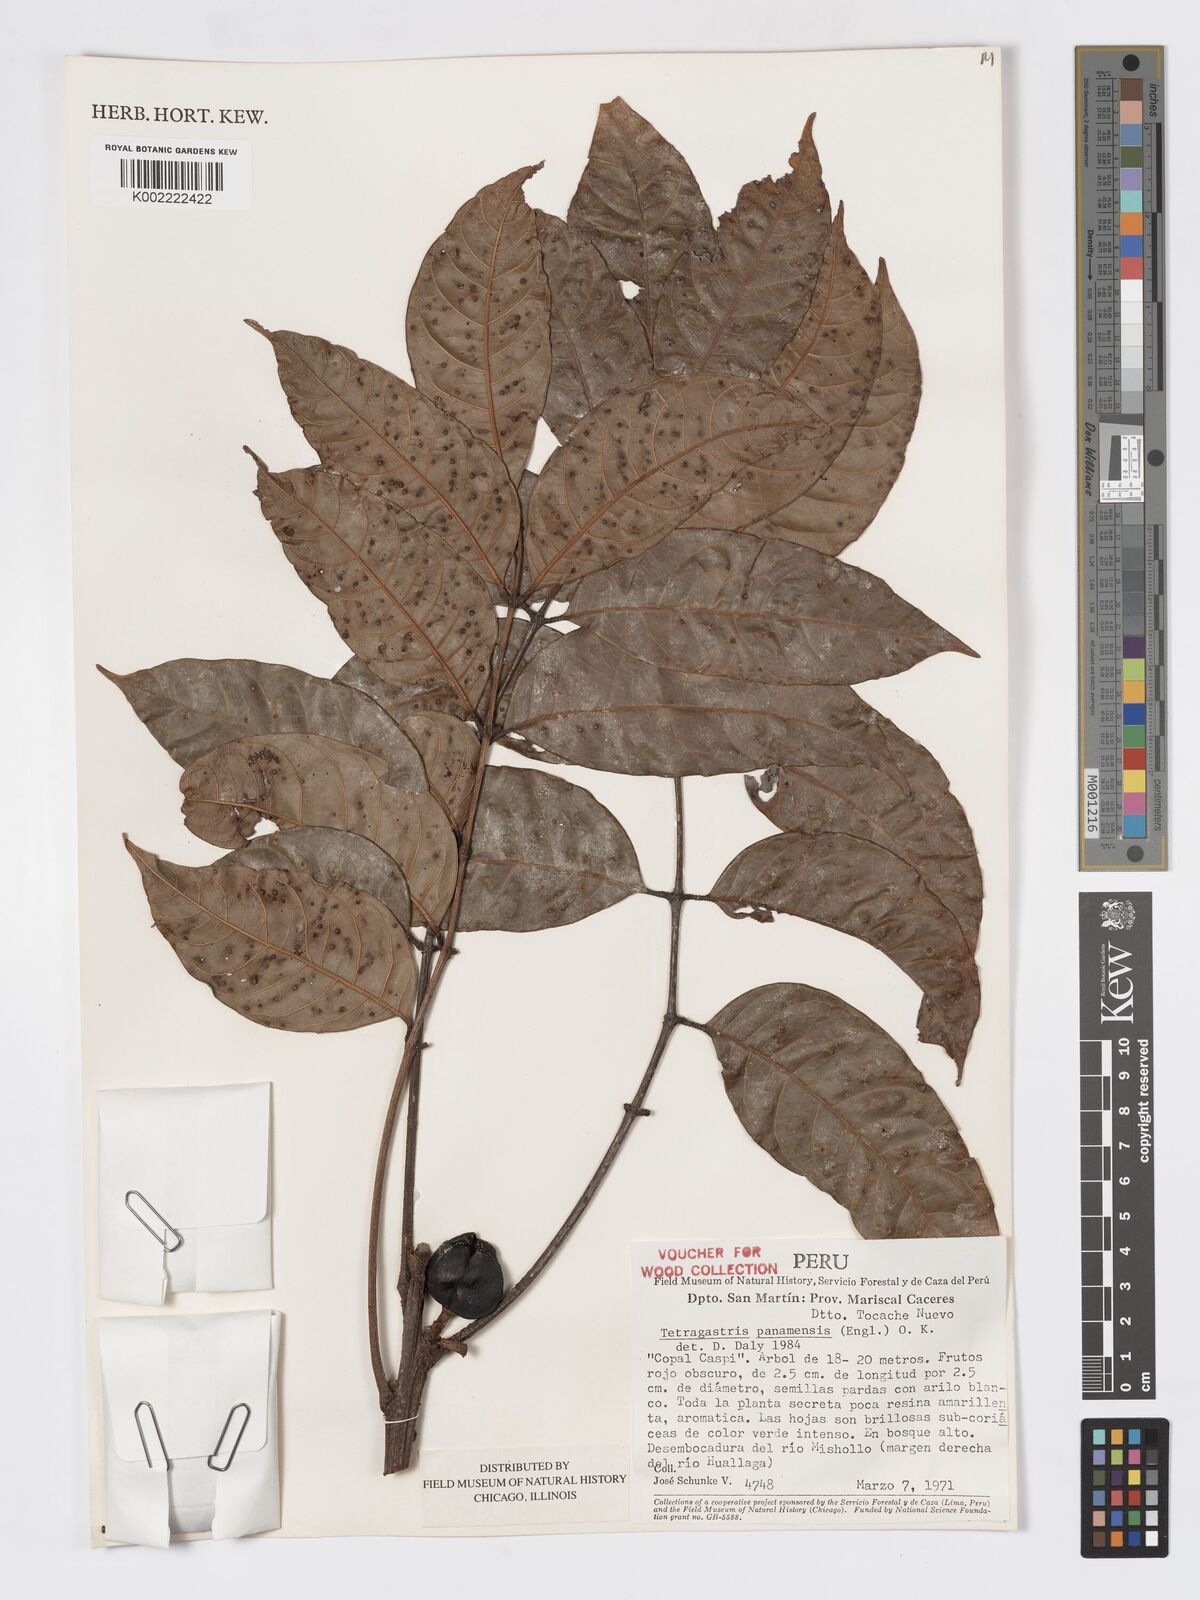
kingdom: Plantae
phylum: Tracheophyta
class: Magnoliopsida
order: Sapindales
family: Burseraceae
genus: Tetragastris
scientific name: Tetragastris panamensis
